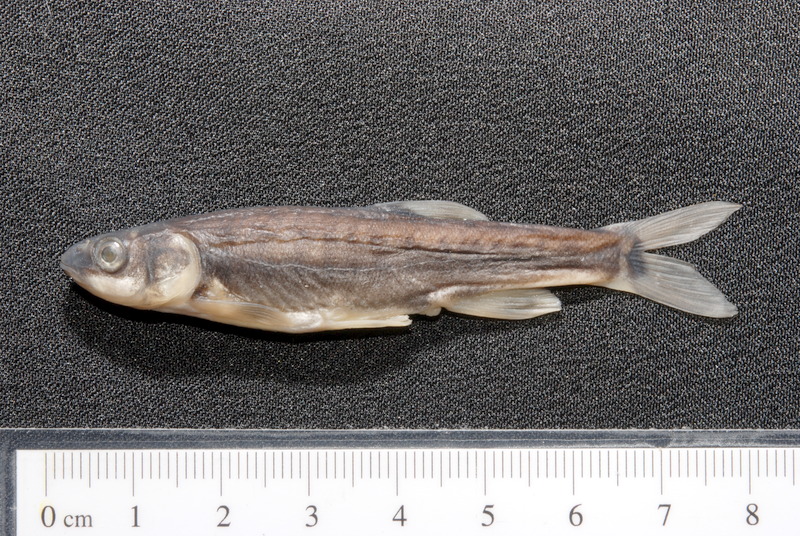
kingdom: Animalia
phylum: Chordata
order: Cypriniformes
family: Cyprinidae
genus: Phoxinus
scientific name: Phoxinus phoxinus
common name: Minnow
